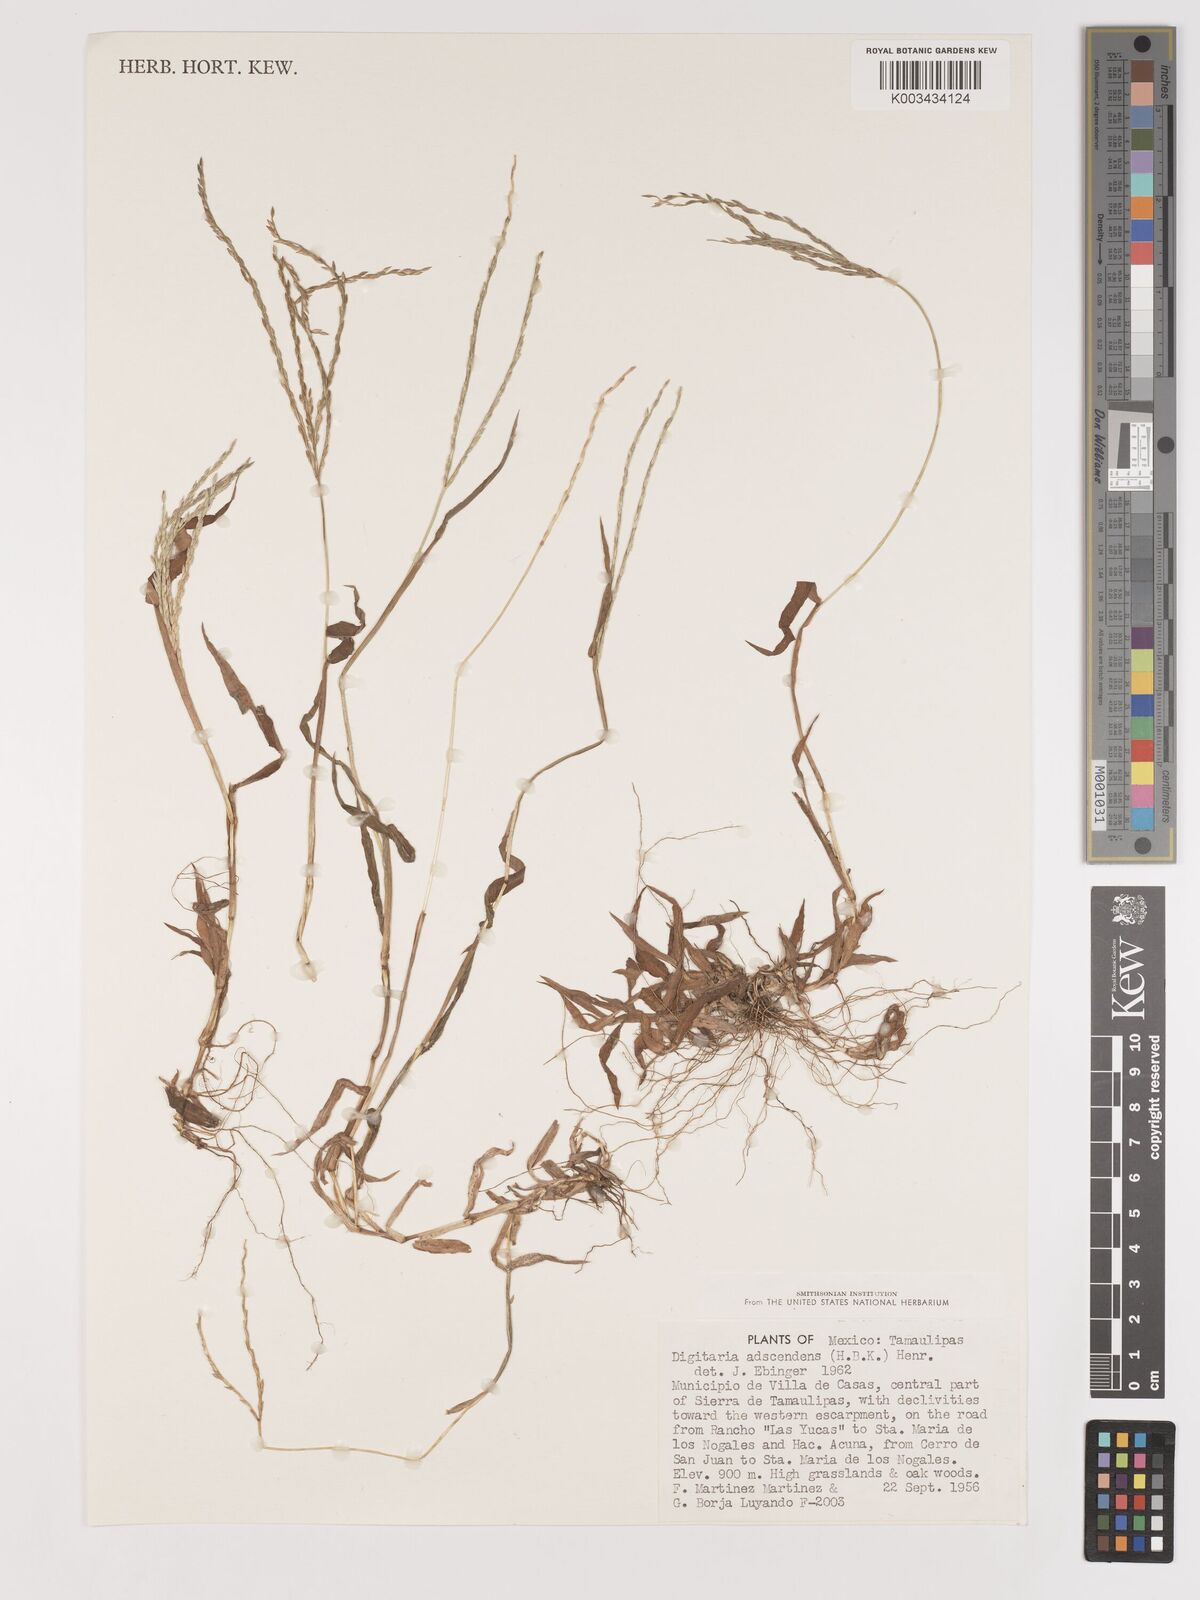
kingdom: Plantae
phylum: Tracheophyta
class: Liliopsida
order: Poales
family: Poaceae
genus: Digitaria
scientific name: Digitaria ciliaris
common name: Tropical finger-grass
